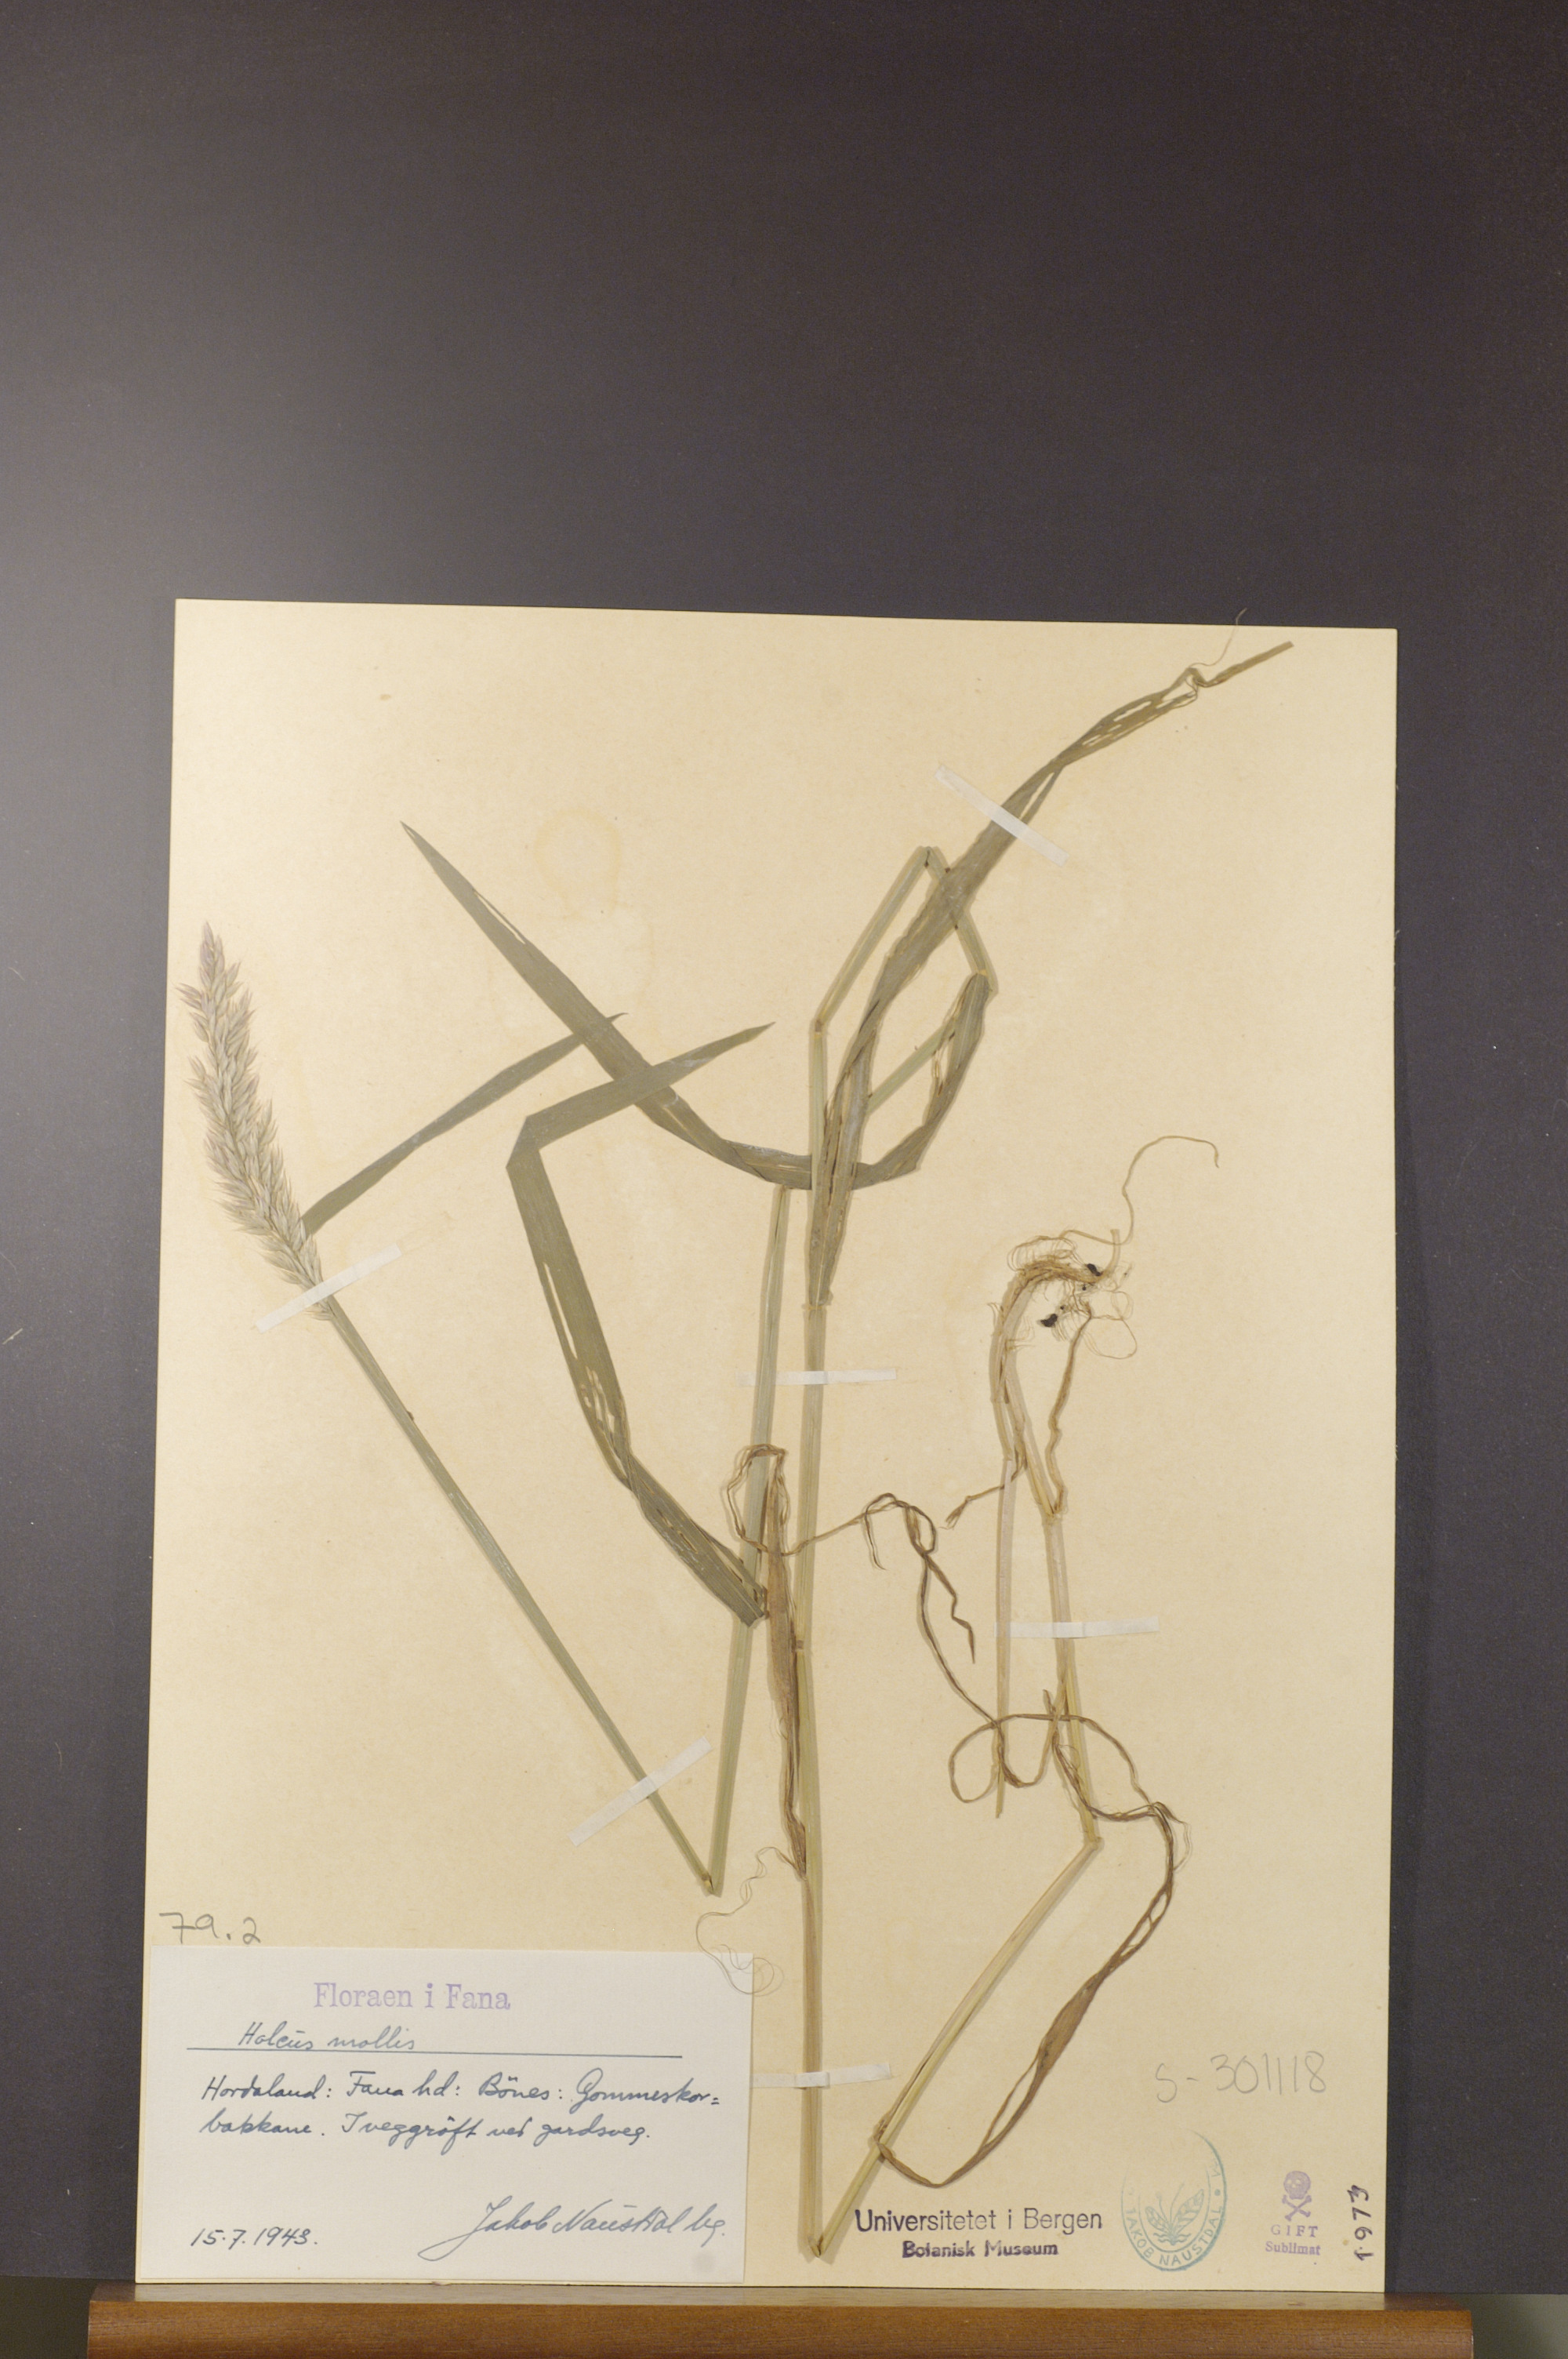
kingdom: Plantae
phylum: Tracheophyta
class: Liliopsida
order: Poales
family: Poaceae
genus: Holcus
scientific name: Holcus mollis
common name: Creeping velvetgrass
